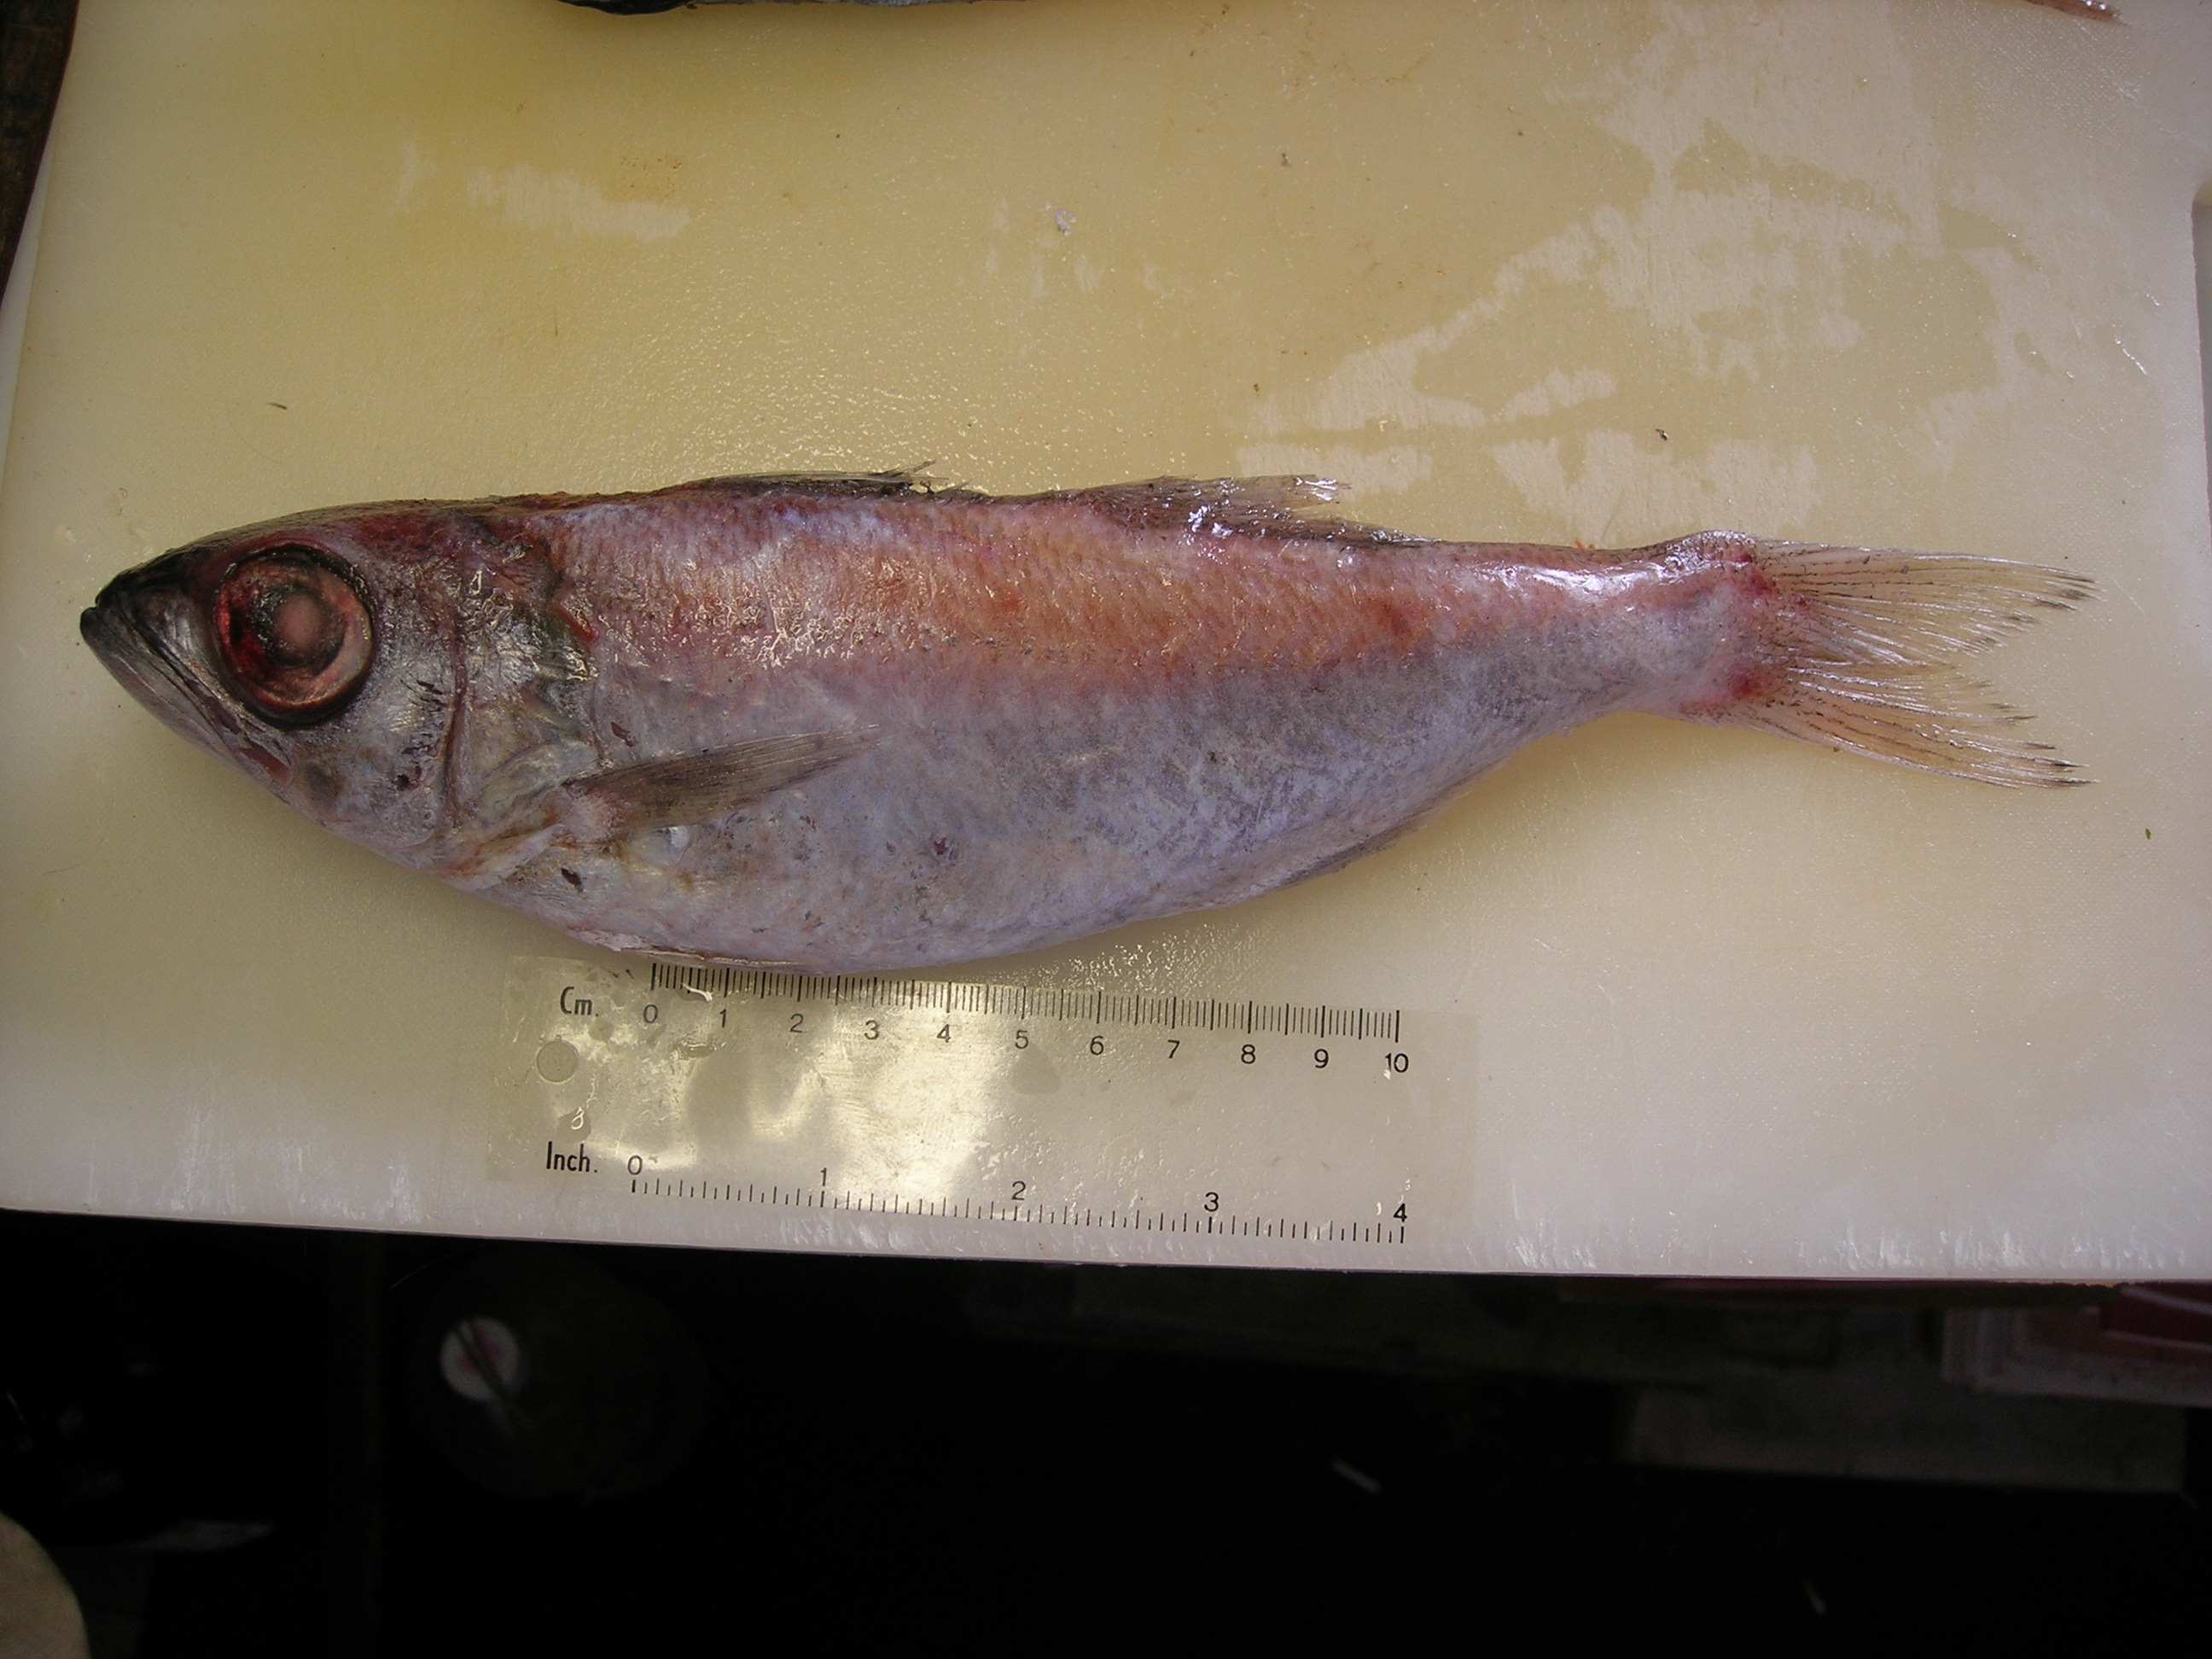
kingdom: Animalia
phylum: Chordata
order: Perciformes
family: Scombropidae
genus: Scombrops
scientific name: Scombrops boops
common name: Gnomefish
